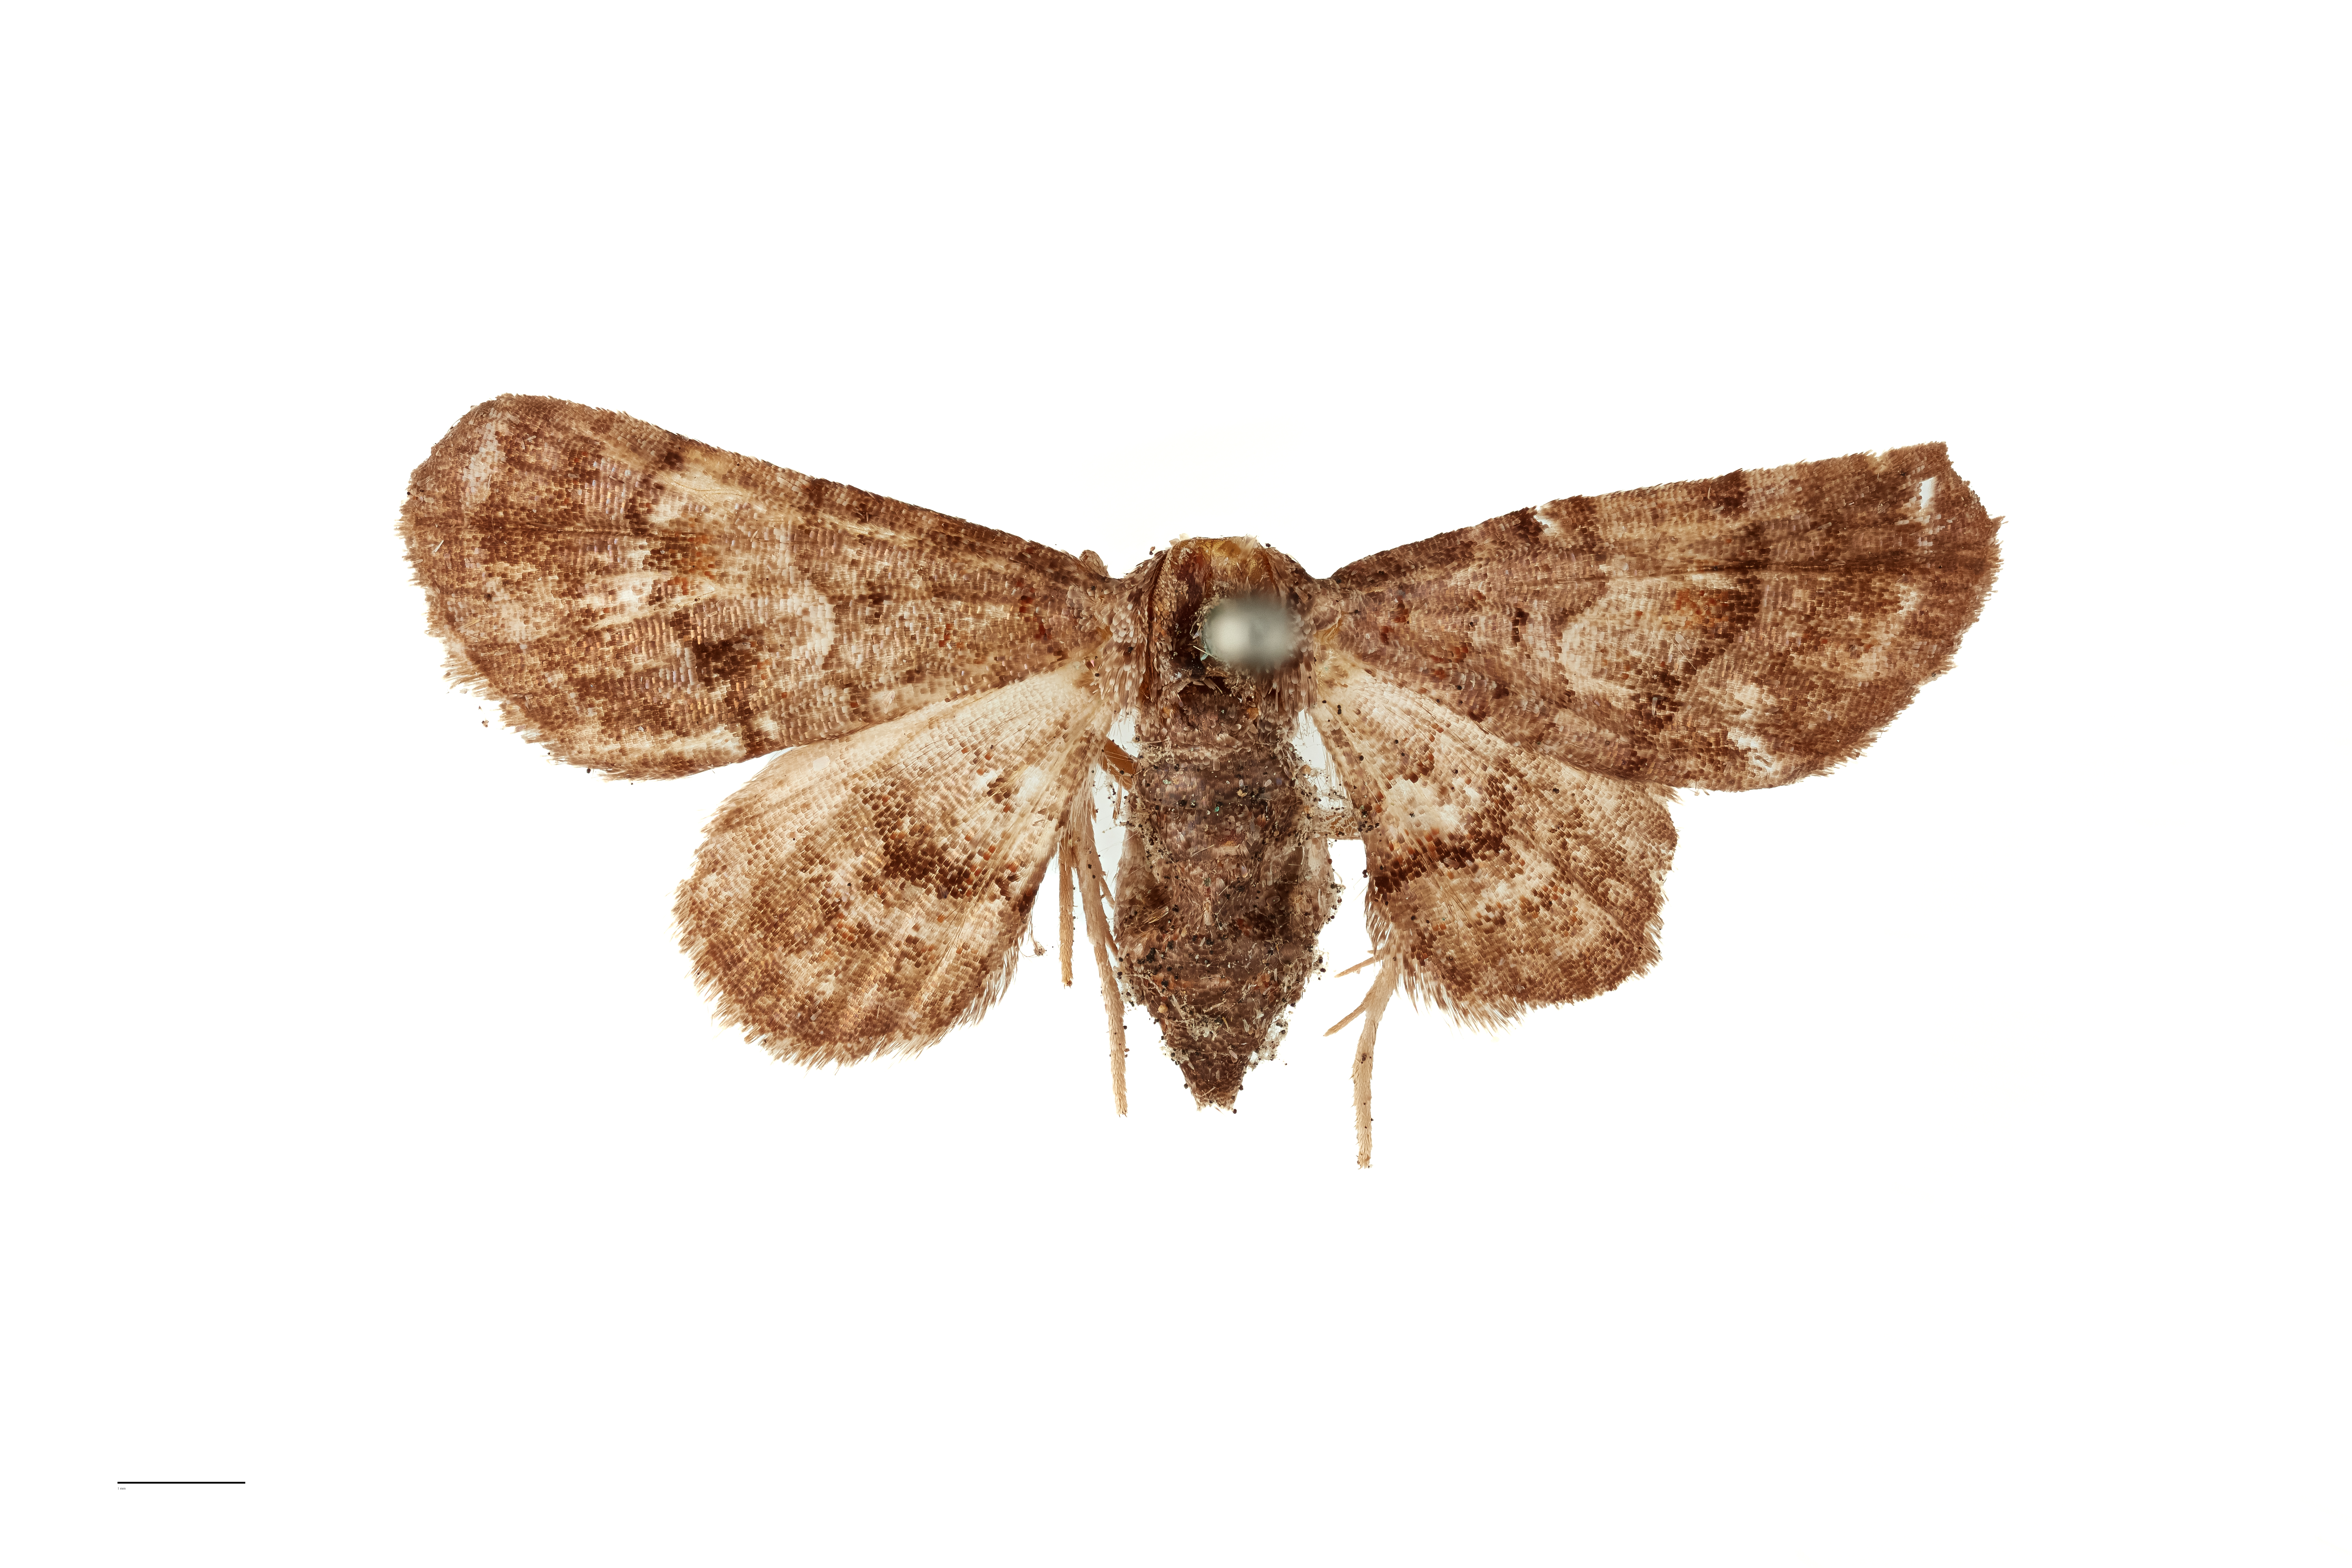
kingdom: Animalia
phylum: Arthropoda
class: Insecta
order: Lepidoptera
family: Geometridae
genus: Terina
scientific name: Terina latifascia
